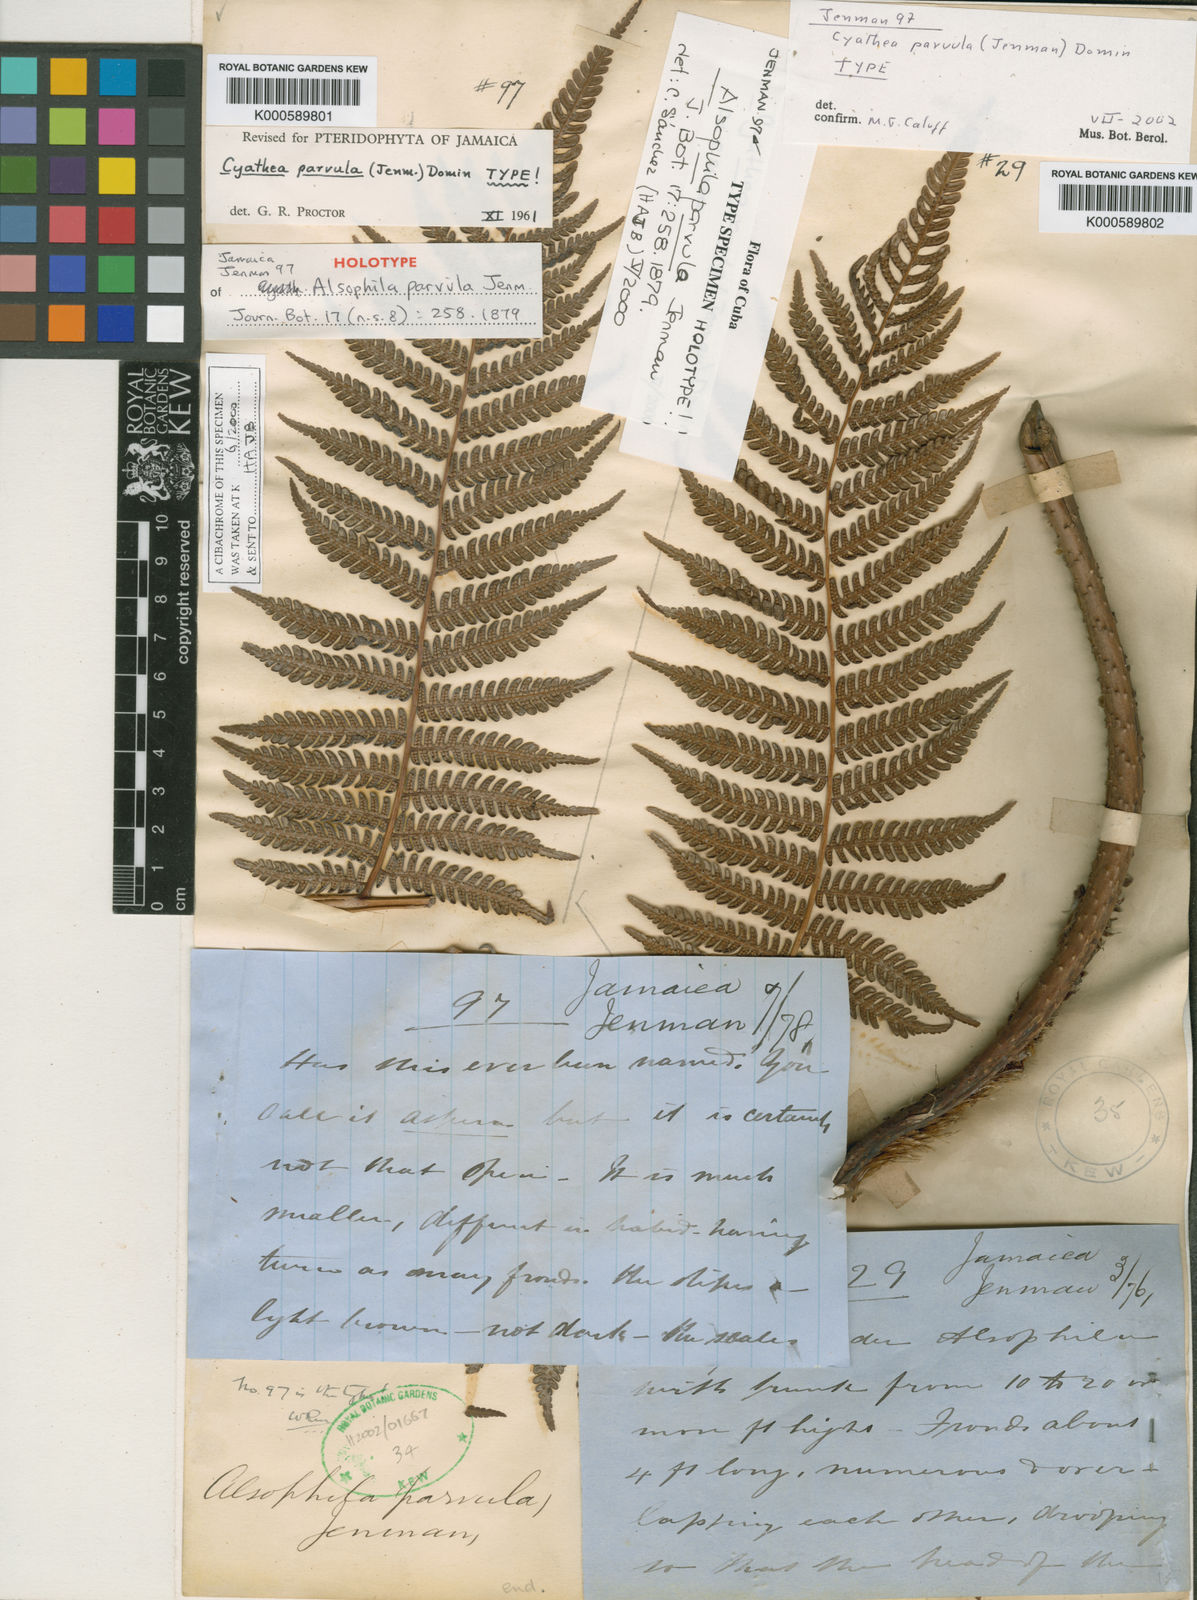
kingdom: Plantae
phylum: Tracheophyta
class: Polypodiopsida
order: Cyatheales
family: Cyatheaceae
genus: Cyathea
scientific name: Cyathea
